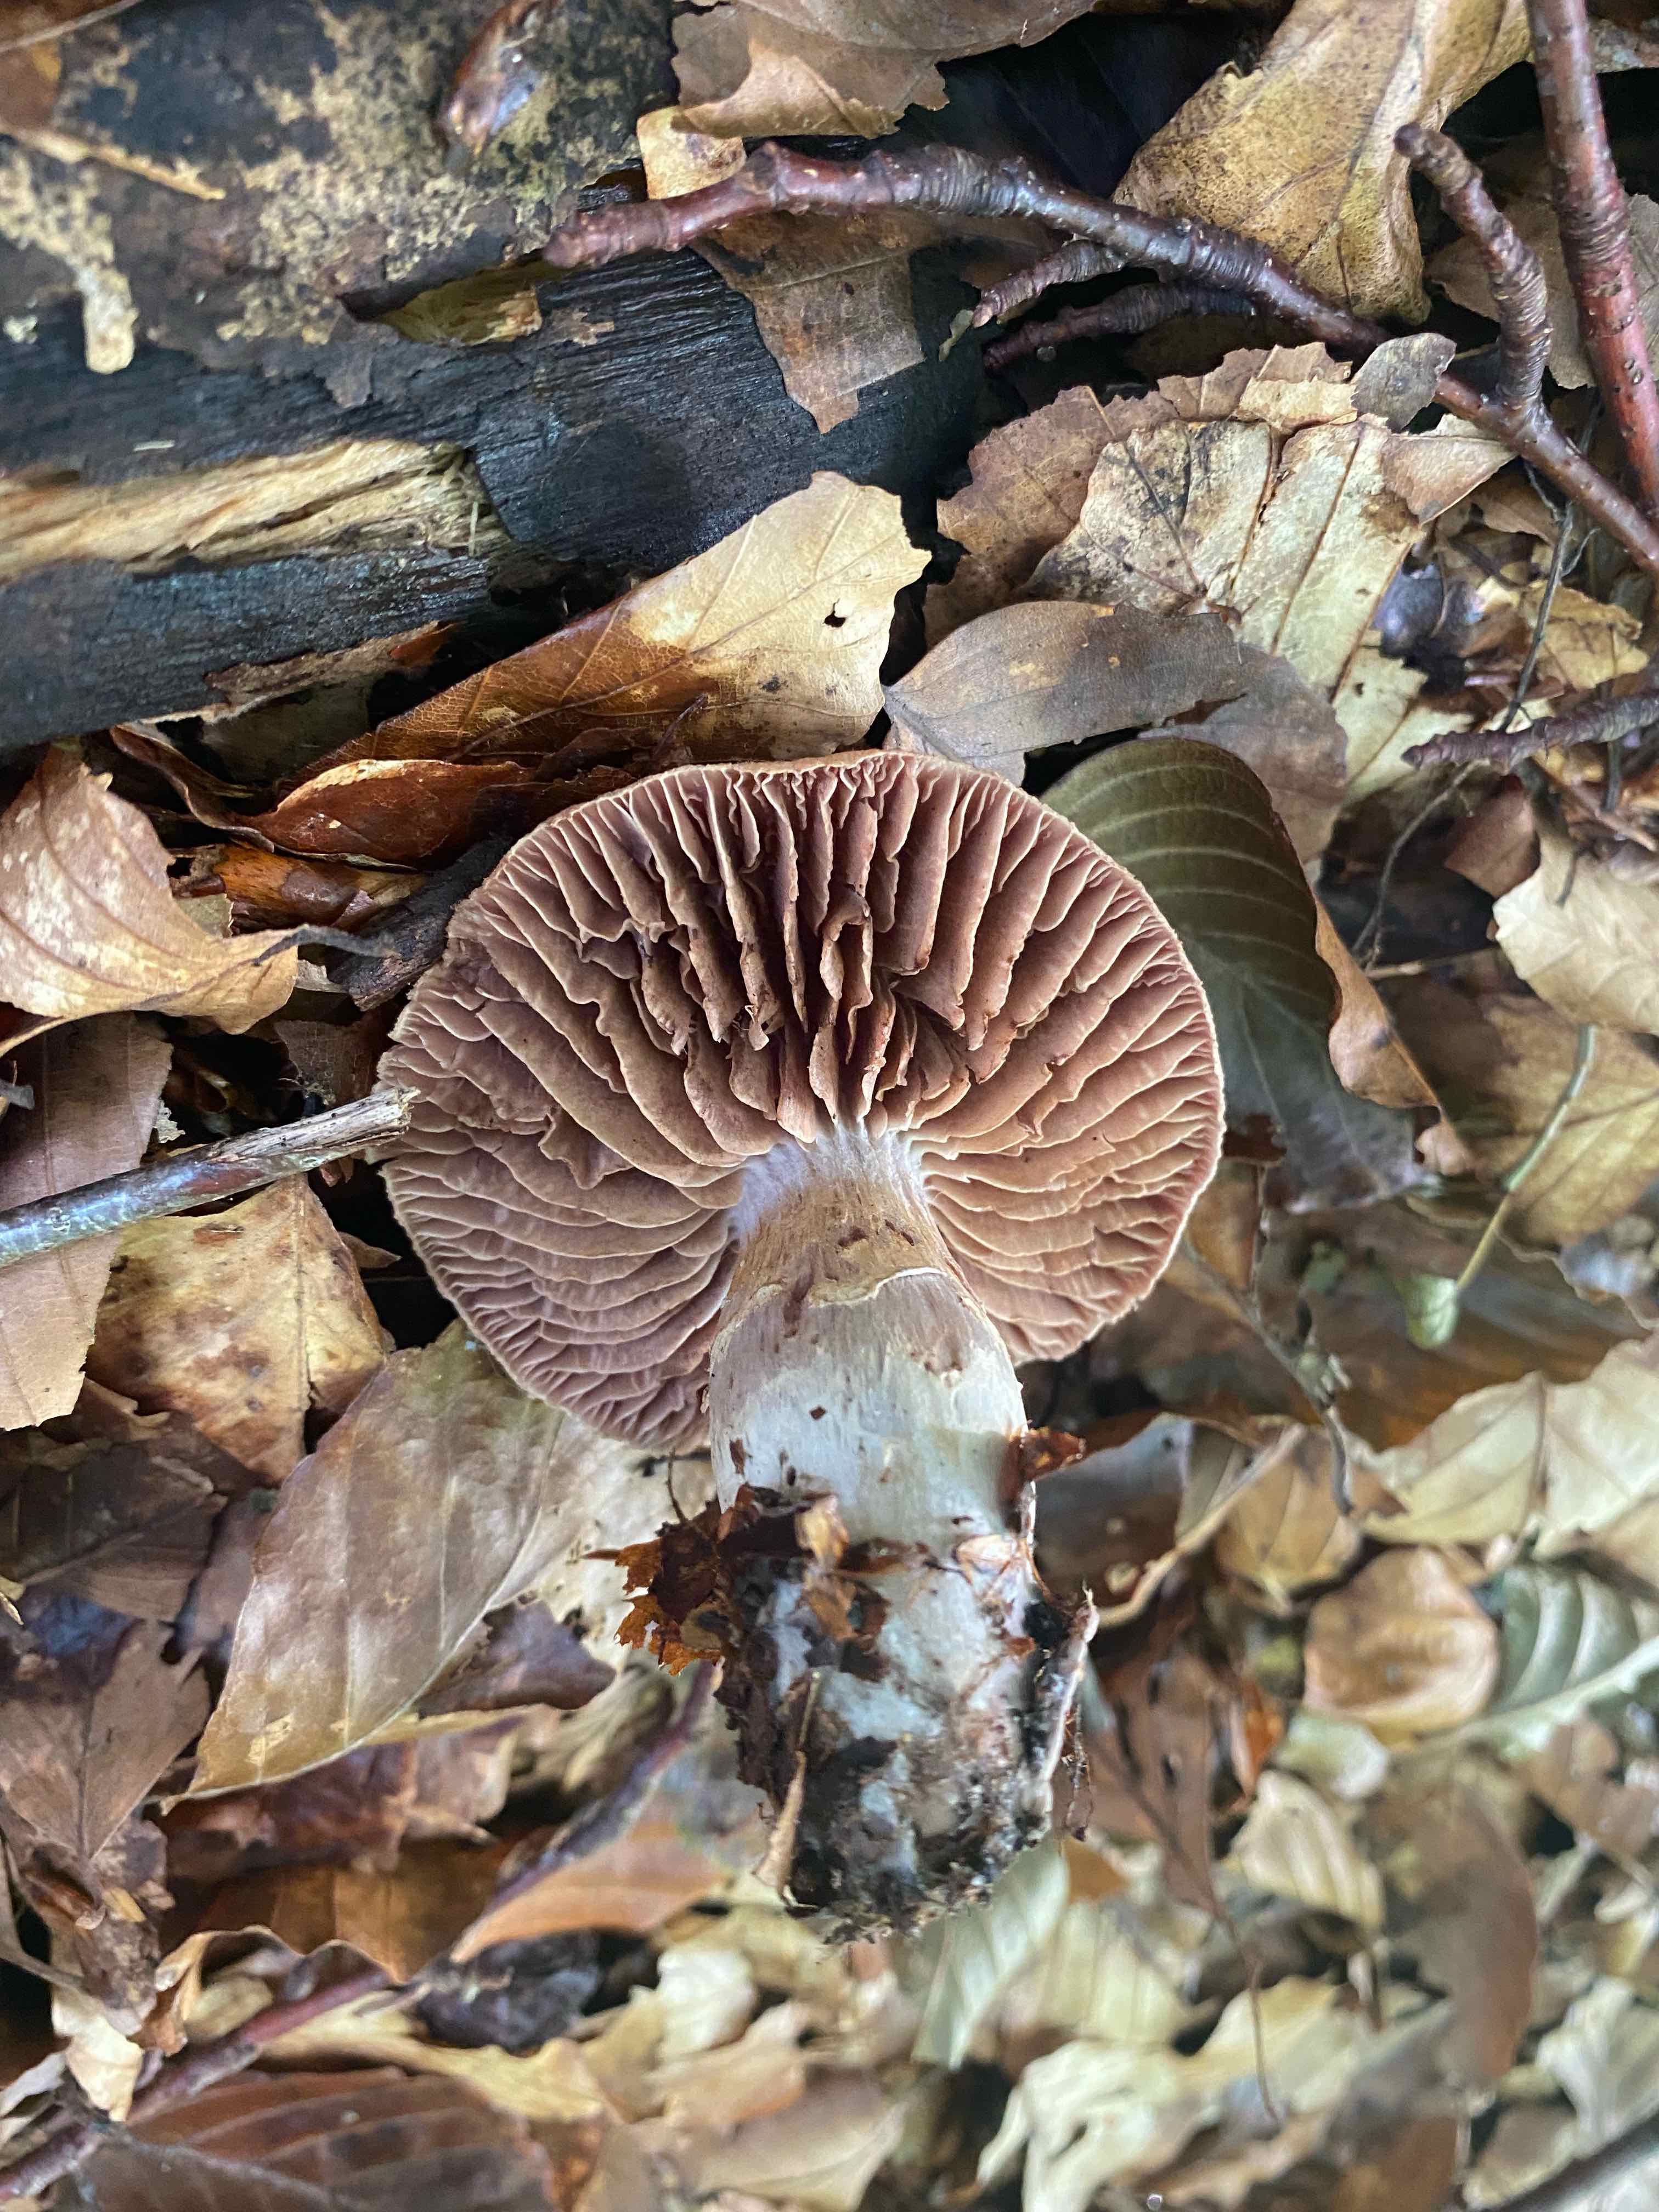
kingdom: Fungi
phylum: Basidiomycota
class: Agaricomycetes
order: Agaricales
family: Cortinariaceae
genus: Cortinarius
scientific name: Cortinarius torvus
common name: champignonagtig slørhat
